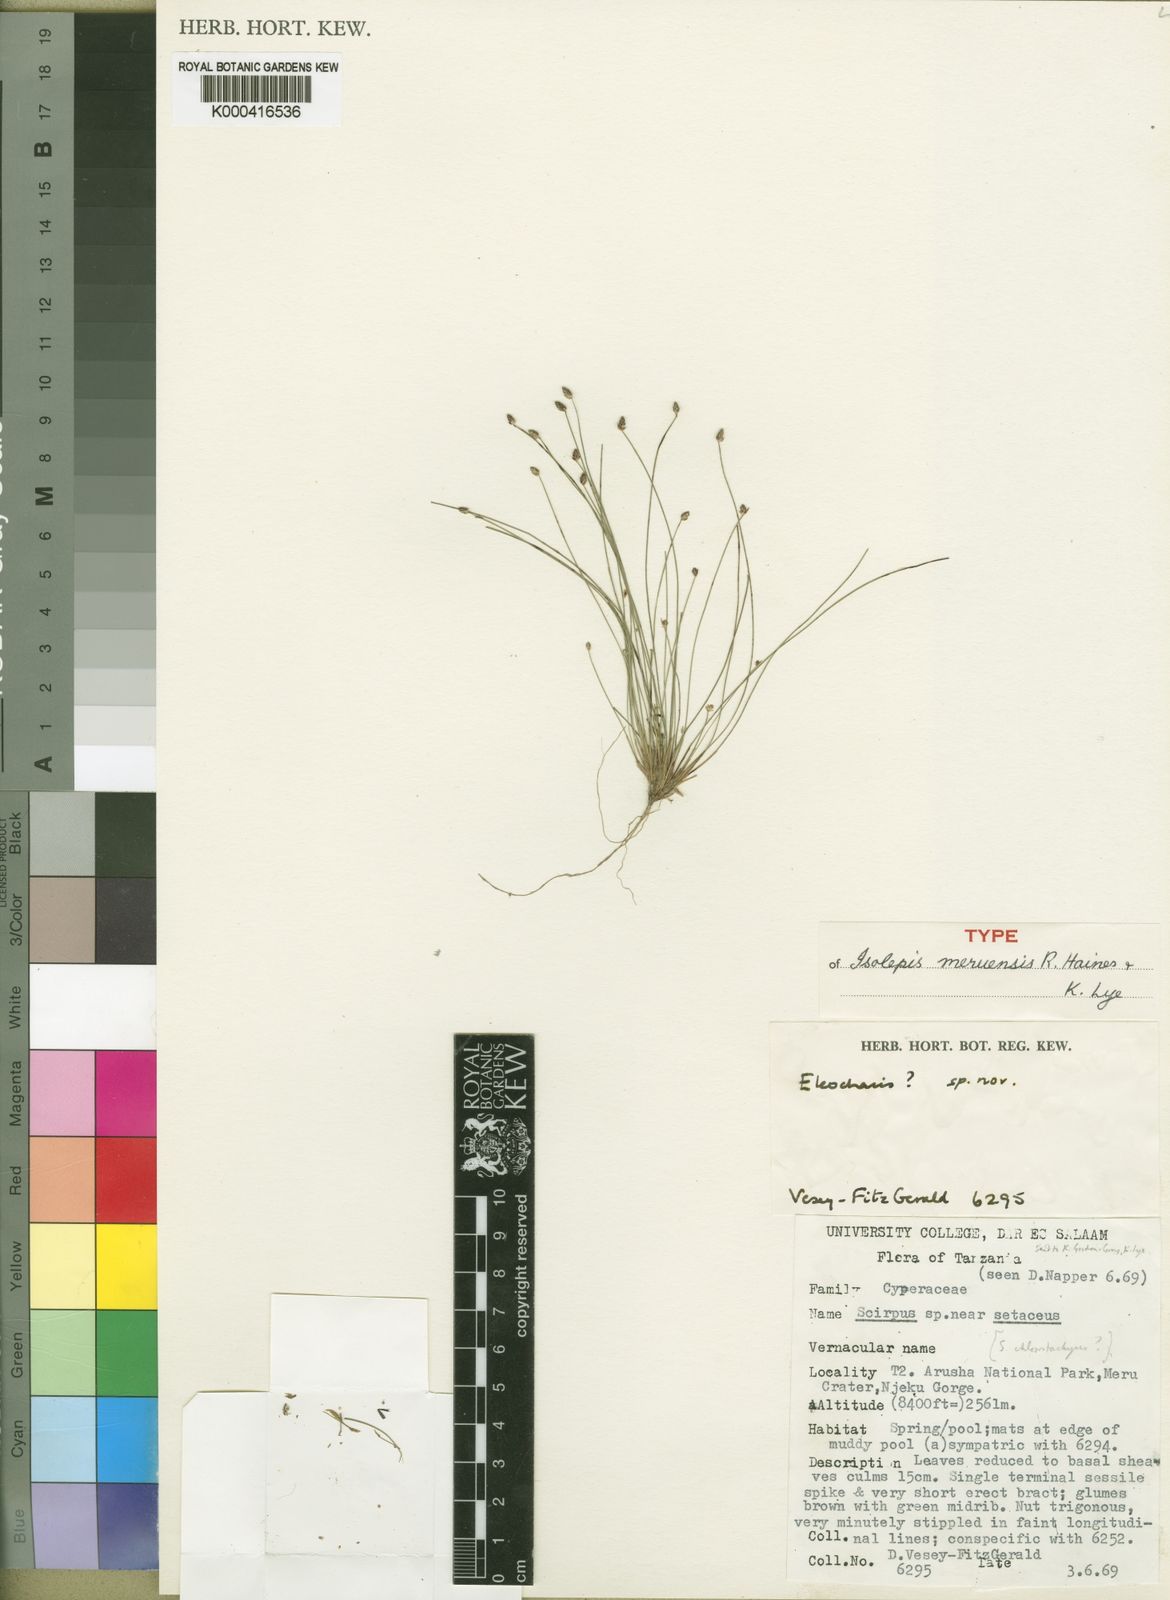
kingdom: Plantae
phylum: Tracheophyta
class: Liliopsida
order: Poales
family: Cyperaceae
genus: Isolepis
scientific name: Isolepis cernua
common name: Slender club-rush
